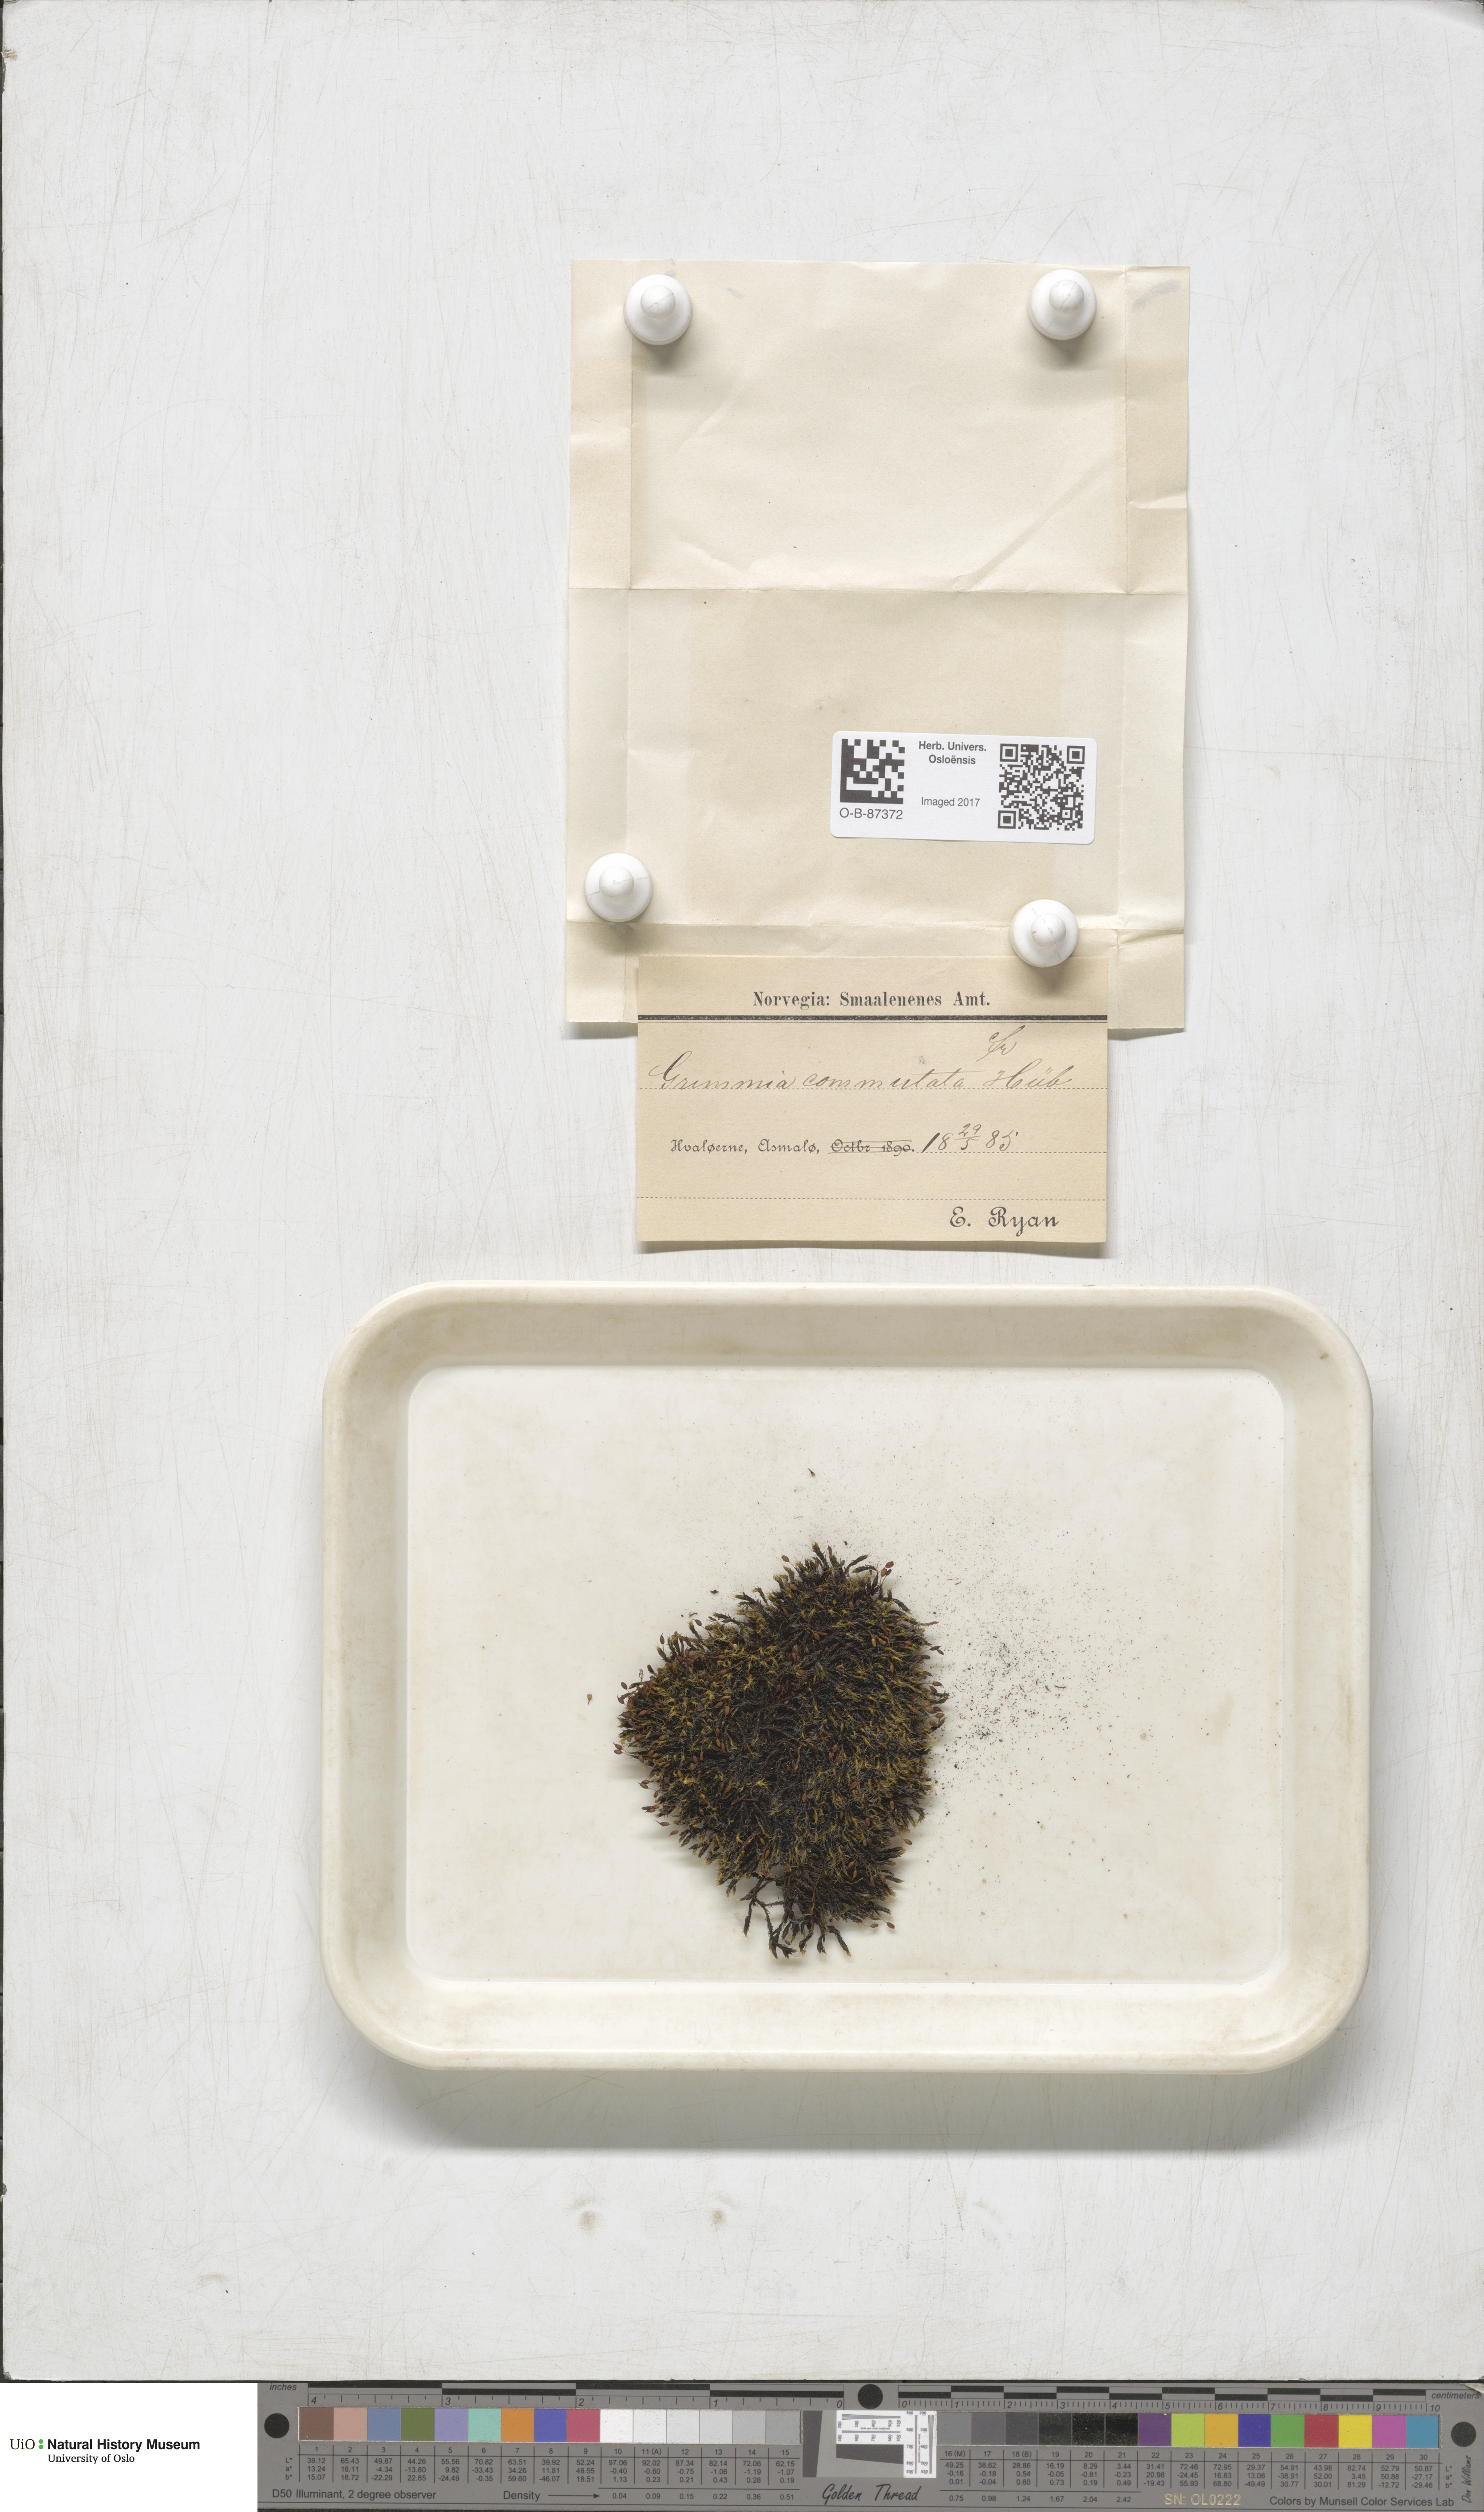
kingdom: Plantae
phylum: Bryophyta
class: Bryopsida
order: Grimmiales
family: Grimmiaceae
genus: Grimmia
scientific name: Grimmia ovalis
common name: Oval grimmia
